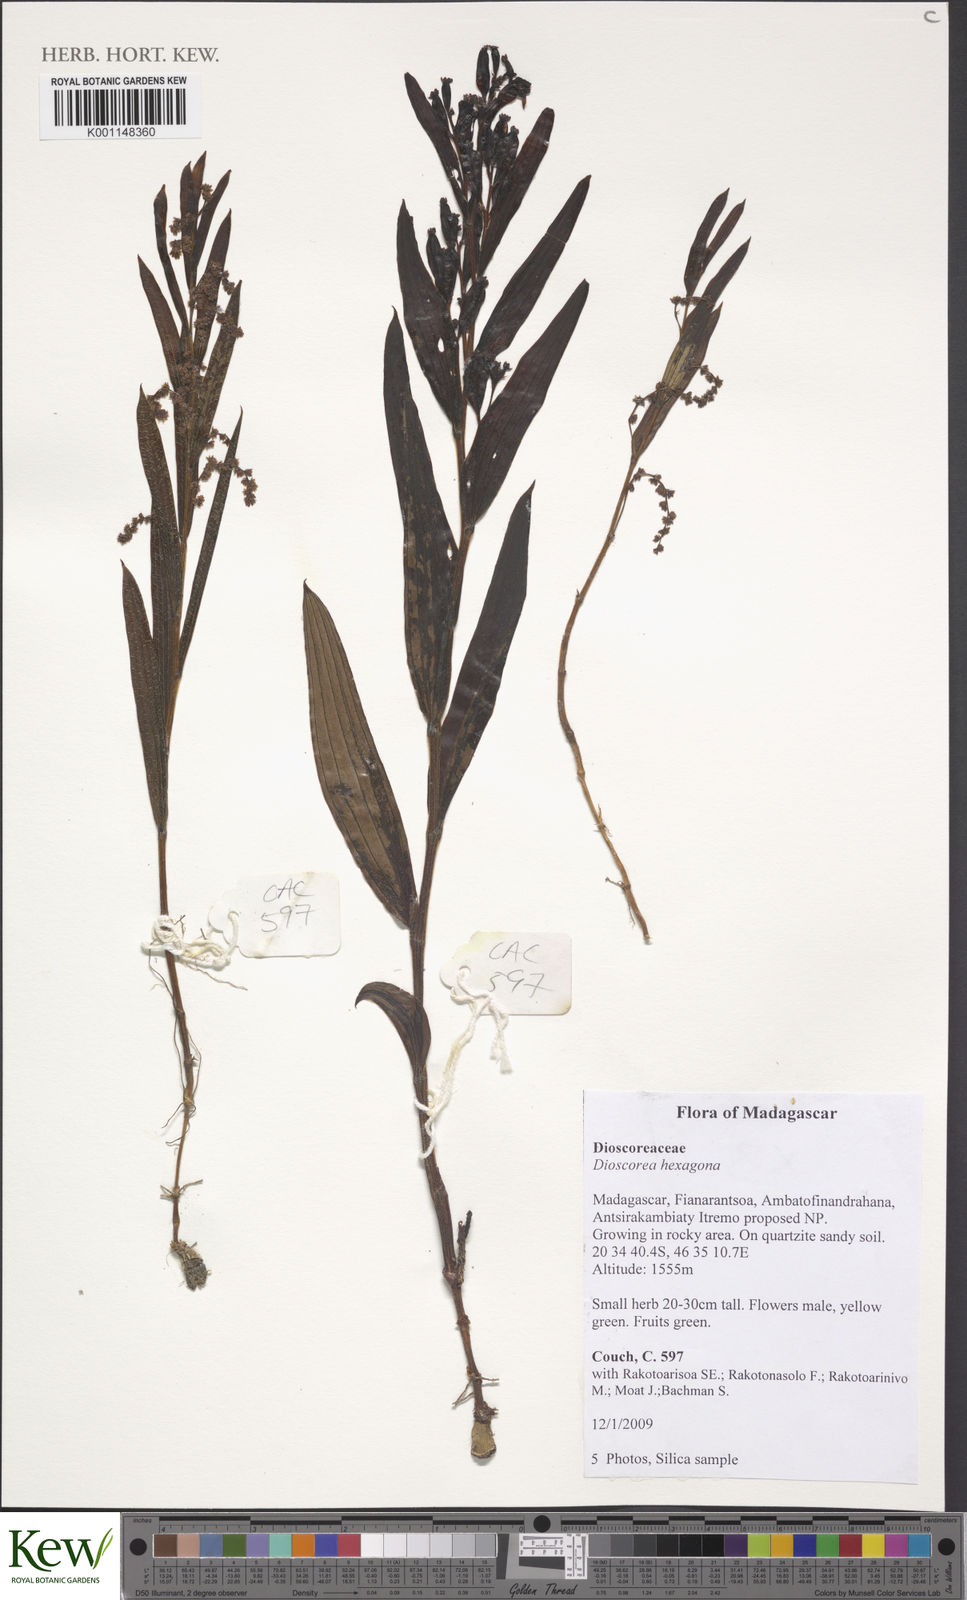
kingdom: Plantae
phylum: Tracheophyta
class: Liliopsida
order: Dioscoreales
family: Dioscoreaceae
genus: Dioscorea
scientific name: Dioscorea hexagona
